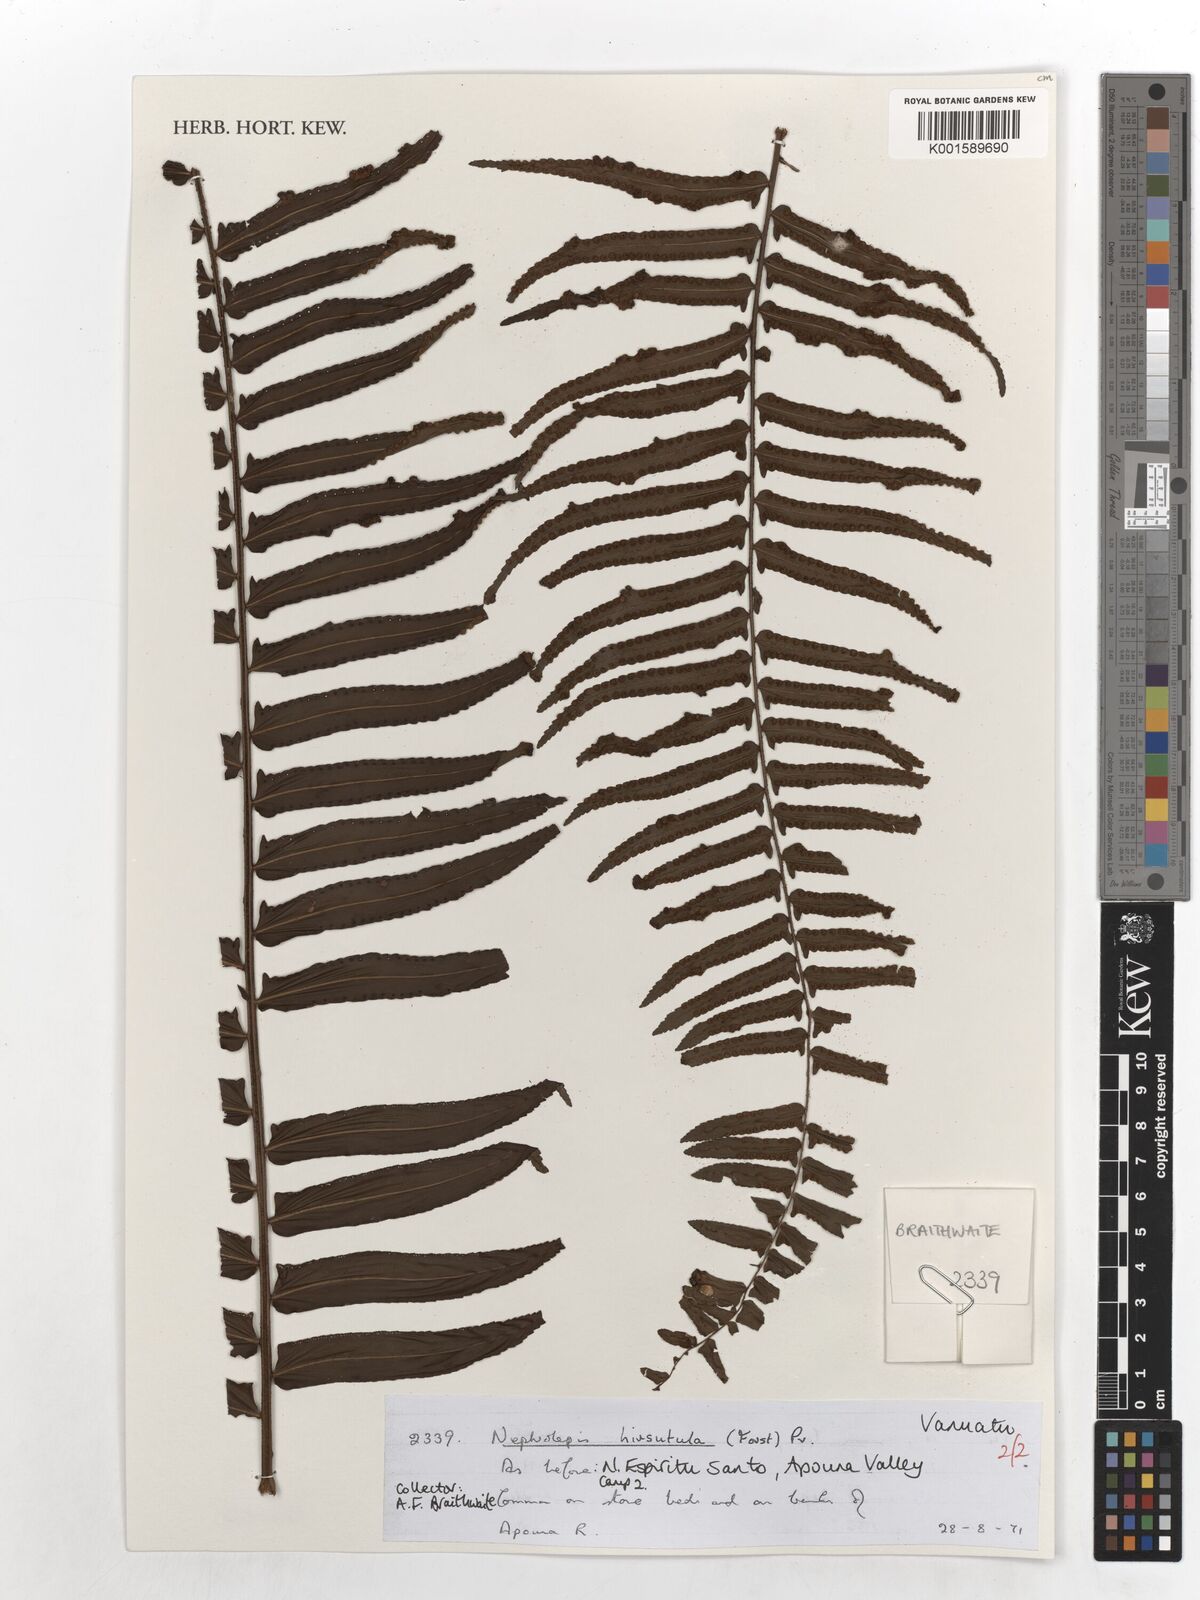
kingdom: Plantae
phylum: Tracheophyta
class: Polypodiopsida
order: Polypodiales
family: Nephrolepidaceae
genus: Nephrolepis
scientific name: Nephrolepis hirsutula
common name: Asian sword fern
